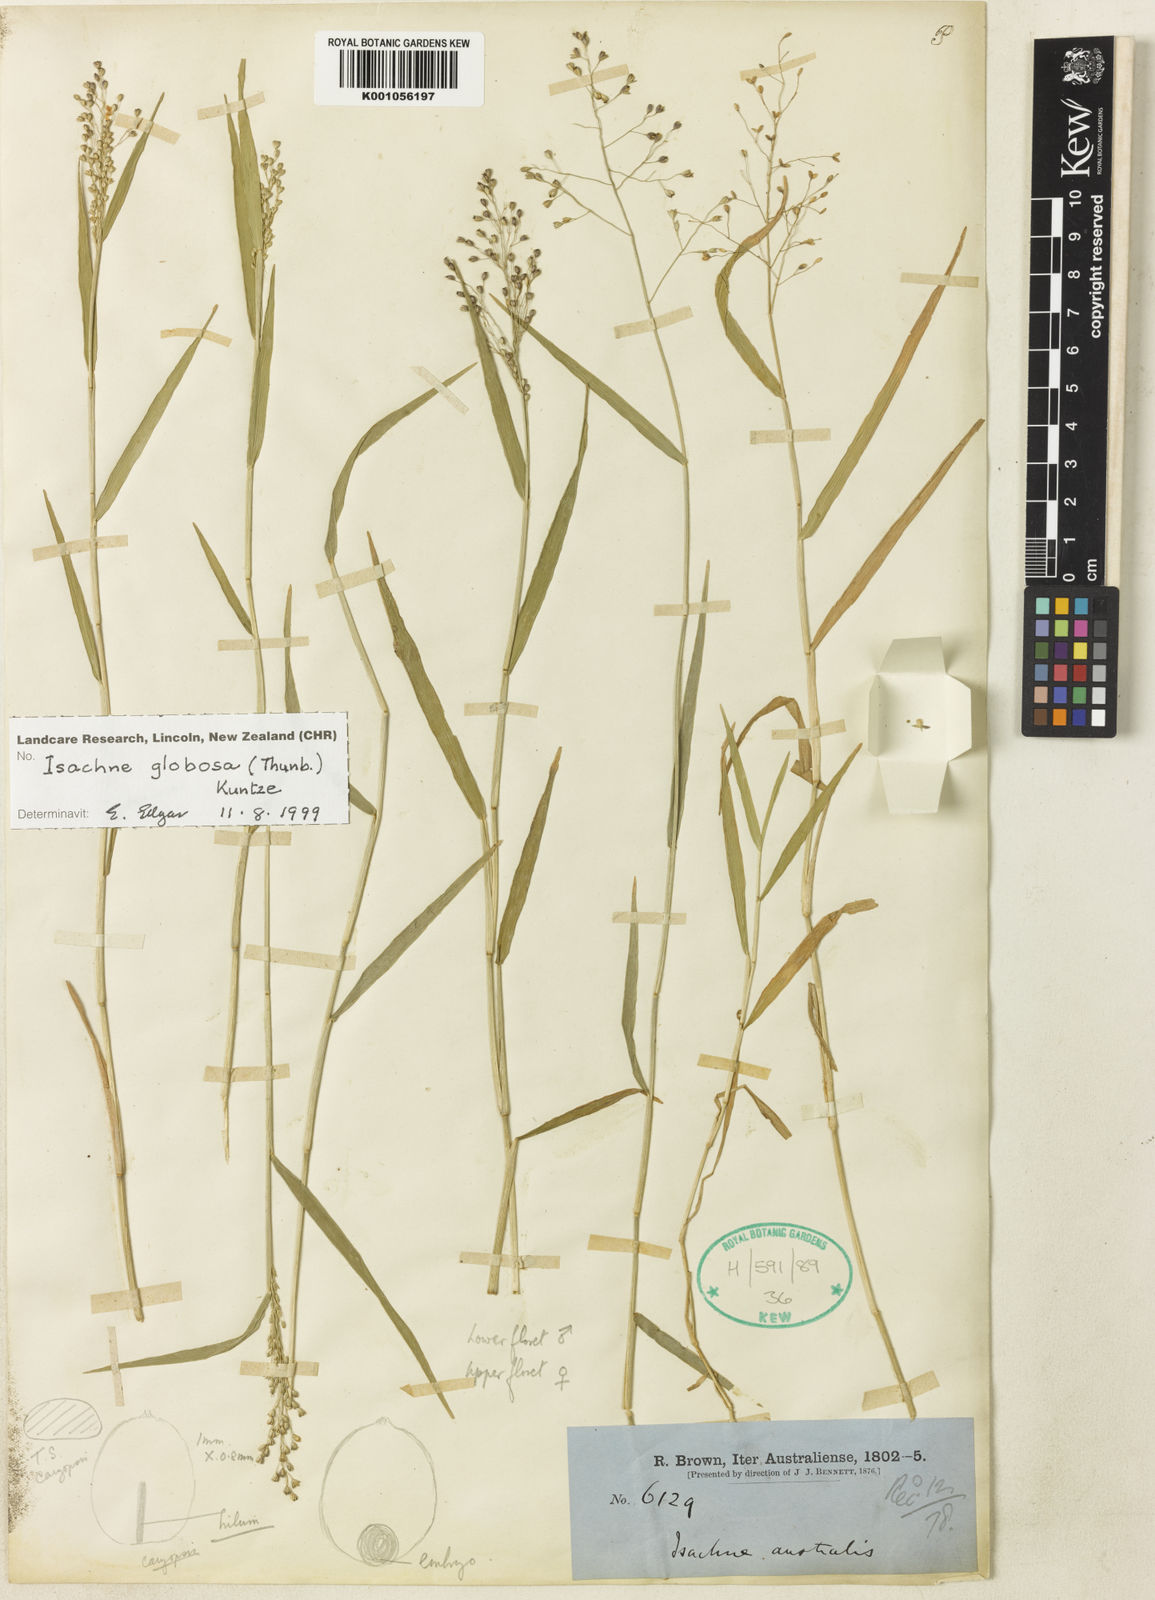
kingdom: Plantae
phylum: Tracheophyta
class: Liliopsida
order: Poales
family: Poaceae
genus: Isachne
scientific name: Isachne globosa
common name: Swamp millet
